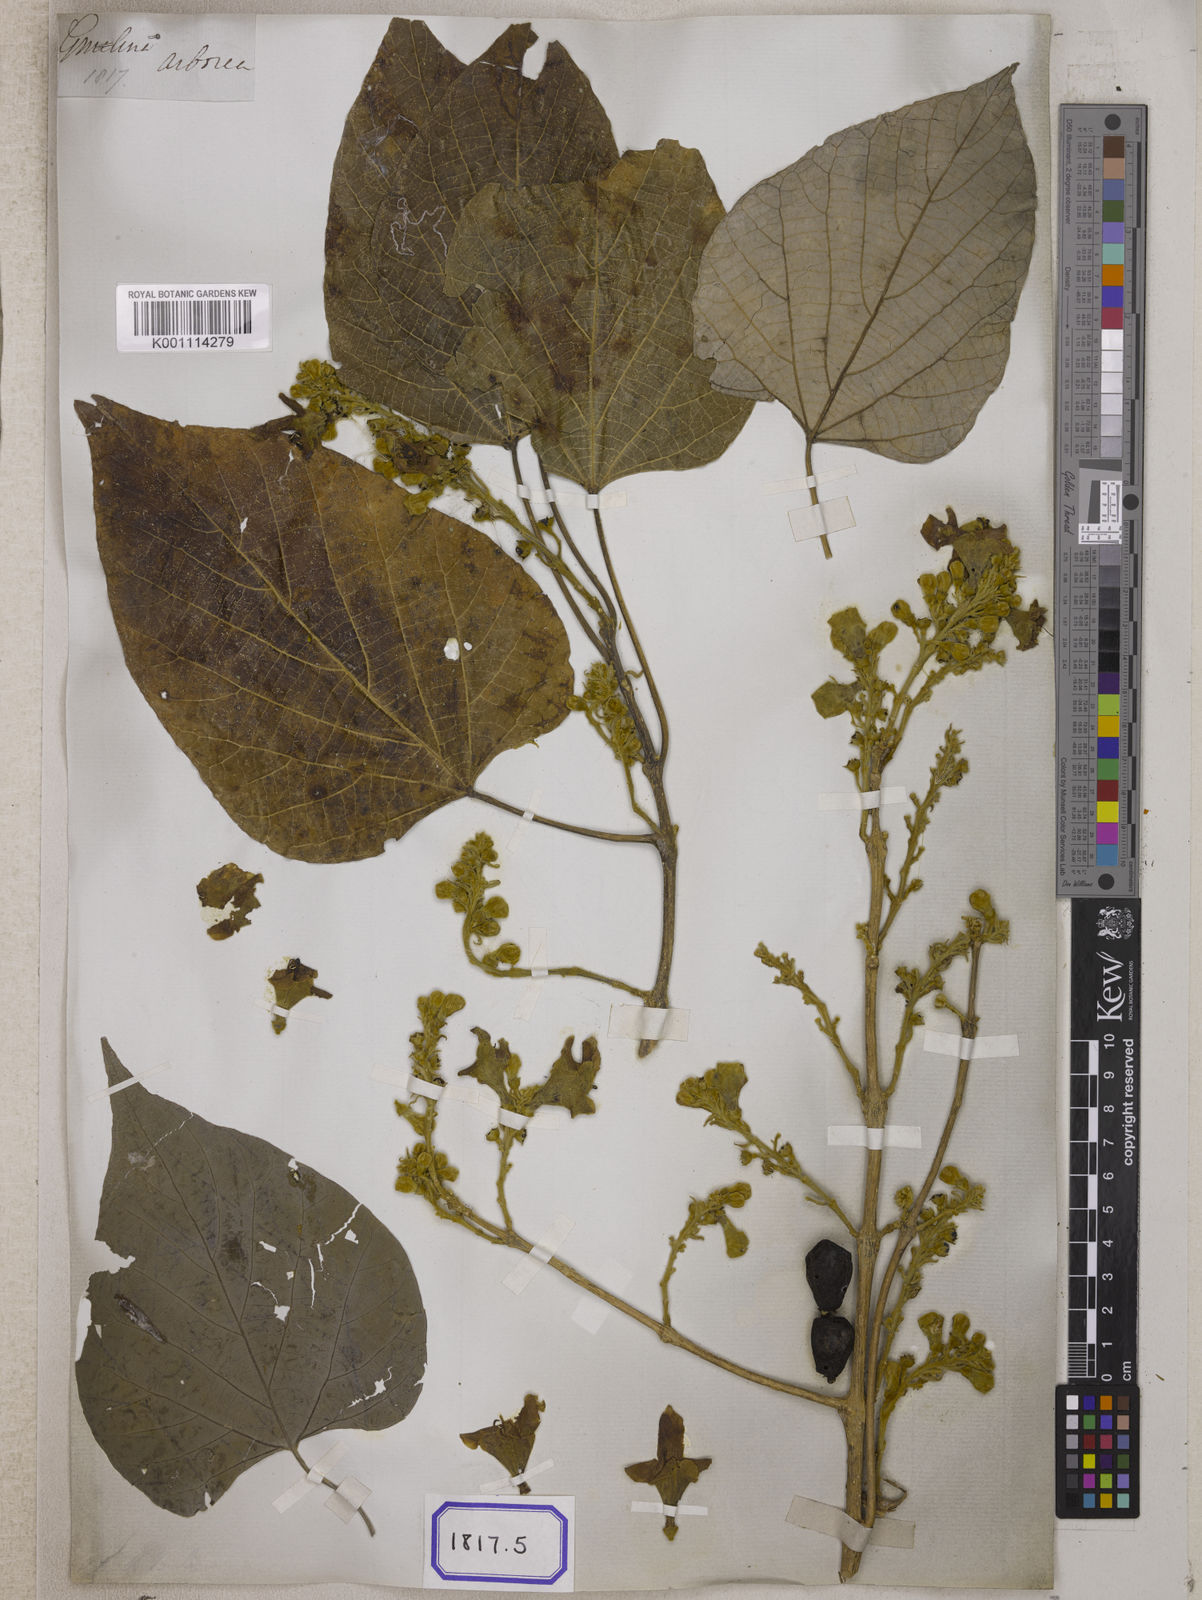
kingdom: Plantae
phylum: Tracheophyta
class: Magnoliopsida
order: Lamiales
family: Lamiaceae
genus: Gmelina
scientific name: Gmelina
